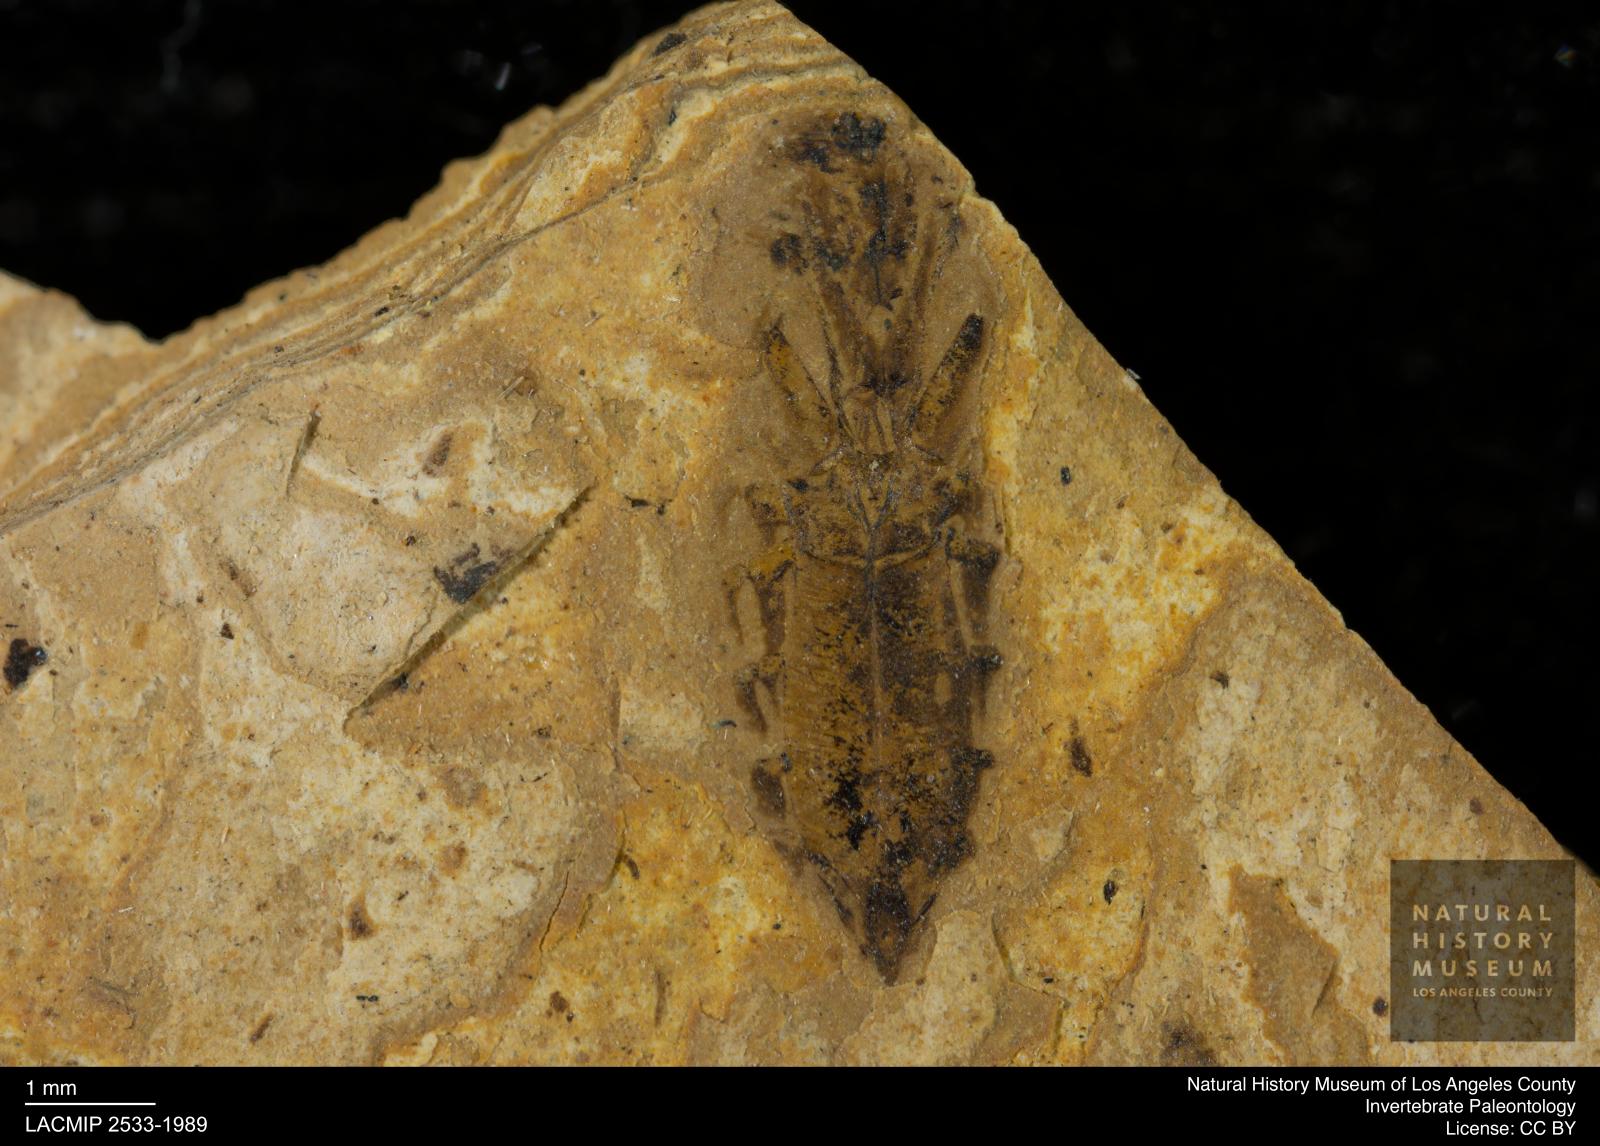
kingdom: Animalia
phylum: Arthropoda
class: Insecta
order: Hemiptera
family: Notonectidae
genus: Notonecta
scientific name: Notonecta
